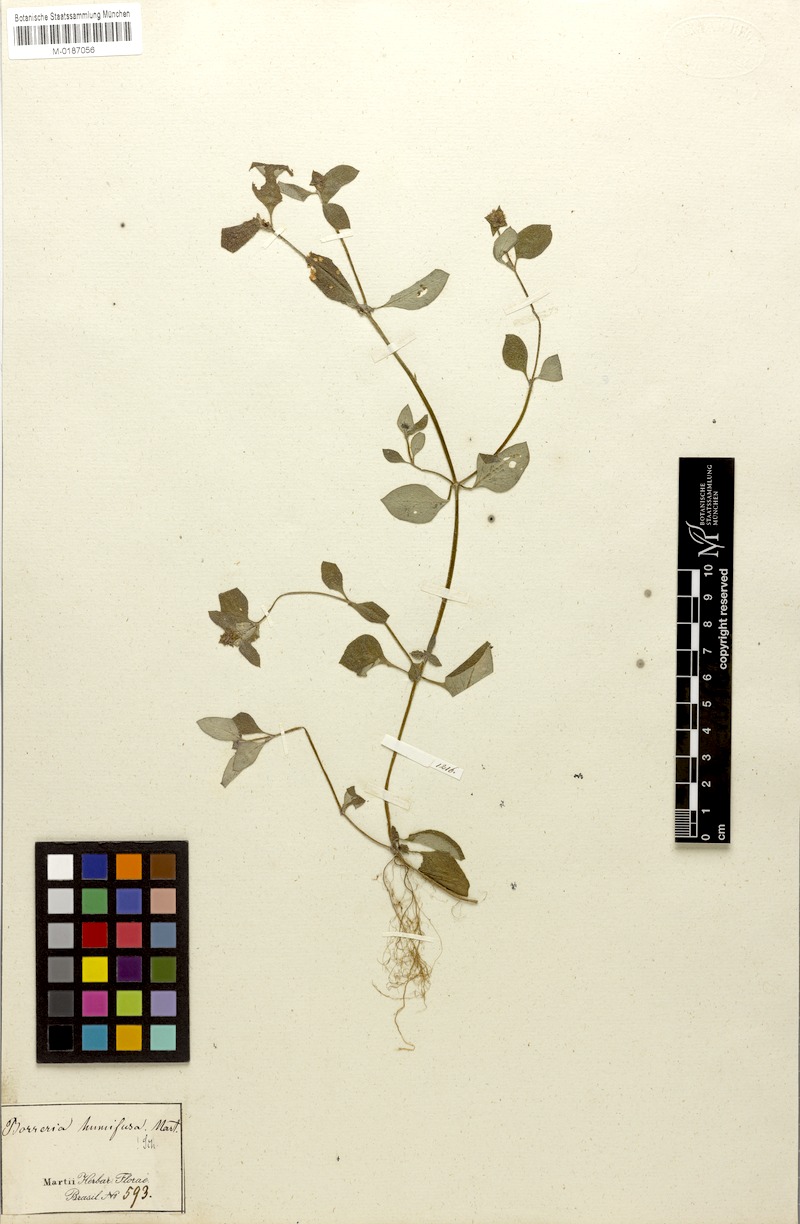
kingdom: Plantae
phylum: Tracheophyta
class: Magnoliopsida
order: Gentianales
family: Rubiaceae
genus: Spermacoce
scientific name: Spermacoce scabiosoides
